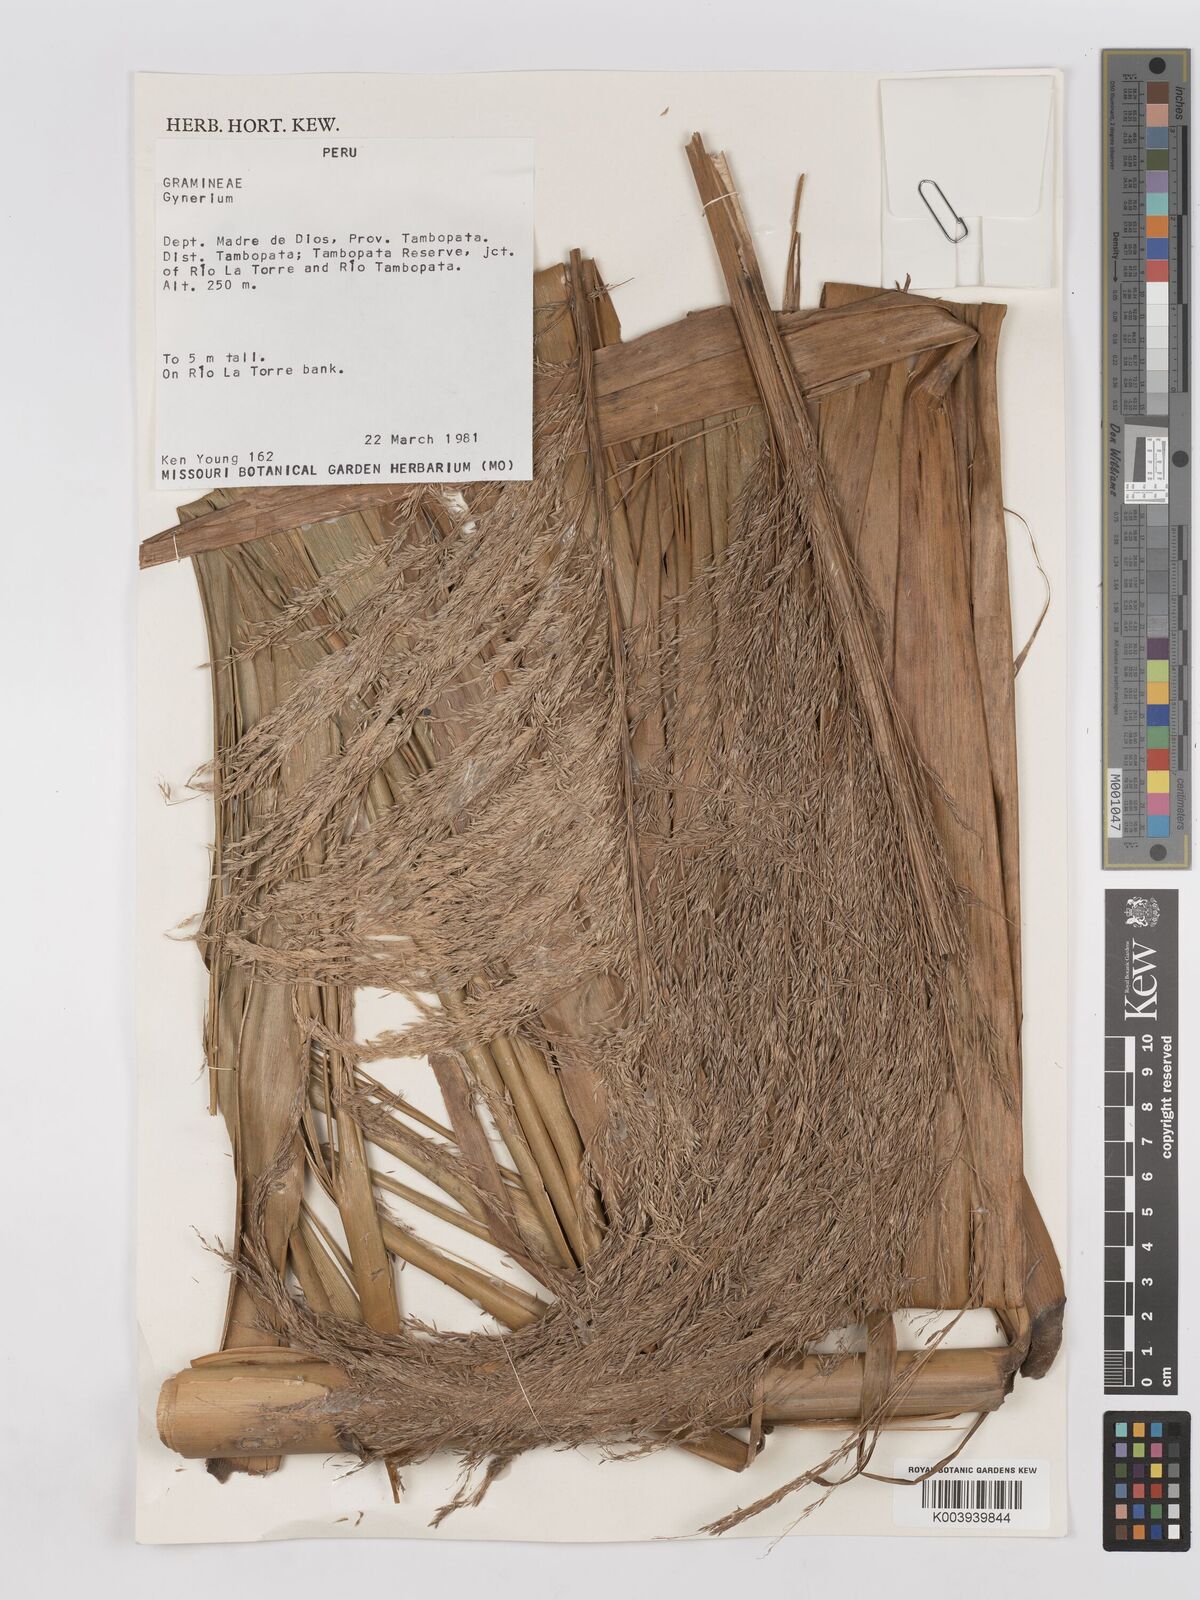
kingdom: Plantae
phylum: Tracheophyta
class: Liliopsida
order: Poales
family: Poaceae
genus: Gynerium
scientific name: Gynerium sagittatum
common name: Wild cane
